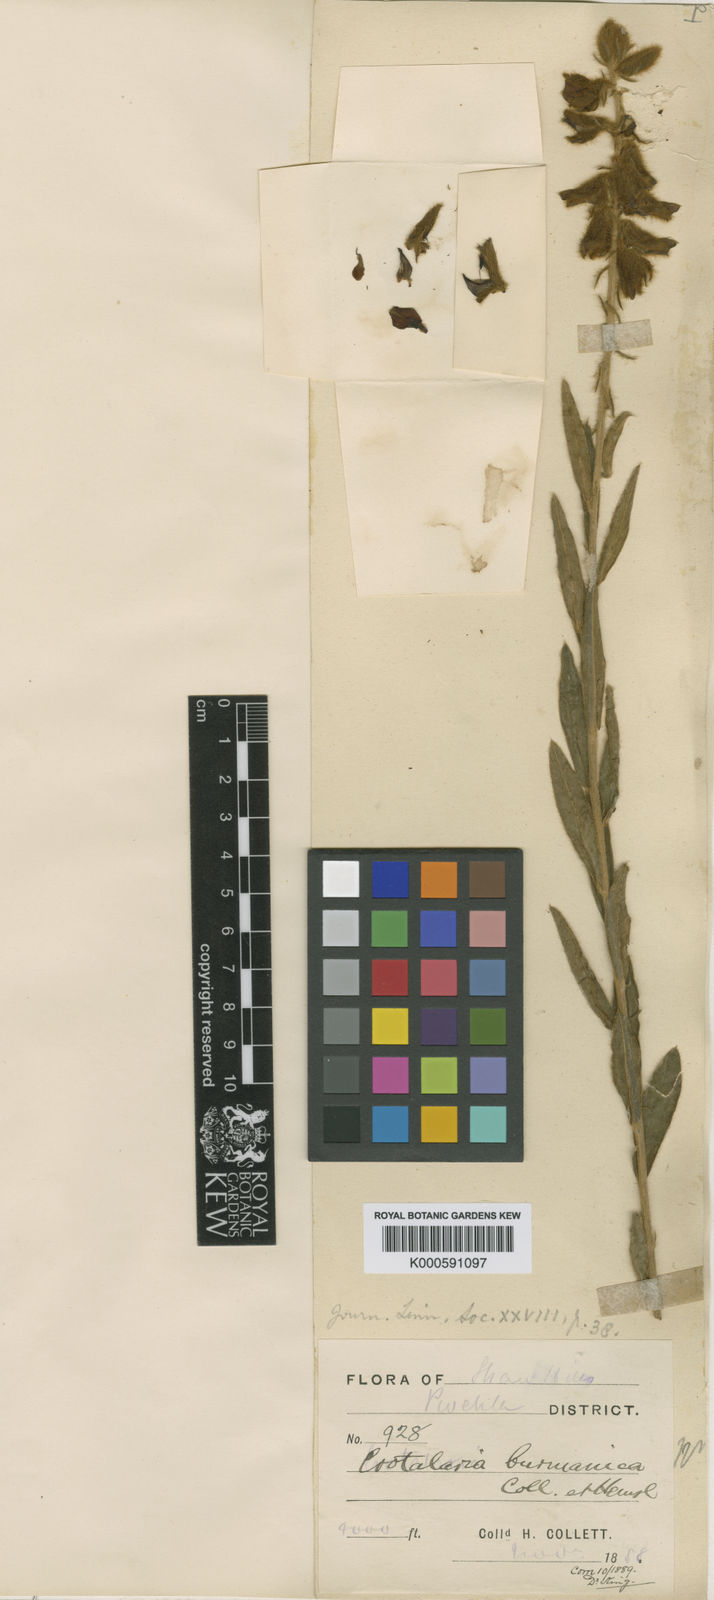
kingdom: Plantae
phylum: Tracheophyta
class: Magnoliopsida
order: Fabales
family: Fabaceae
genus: Crotalaria
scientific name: Crotalaria sessiliflora
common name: Rattlebox
